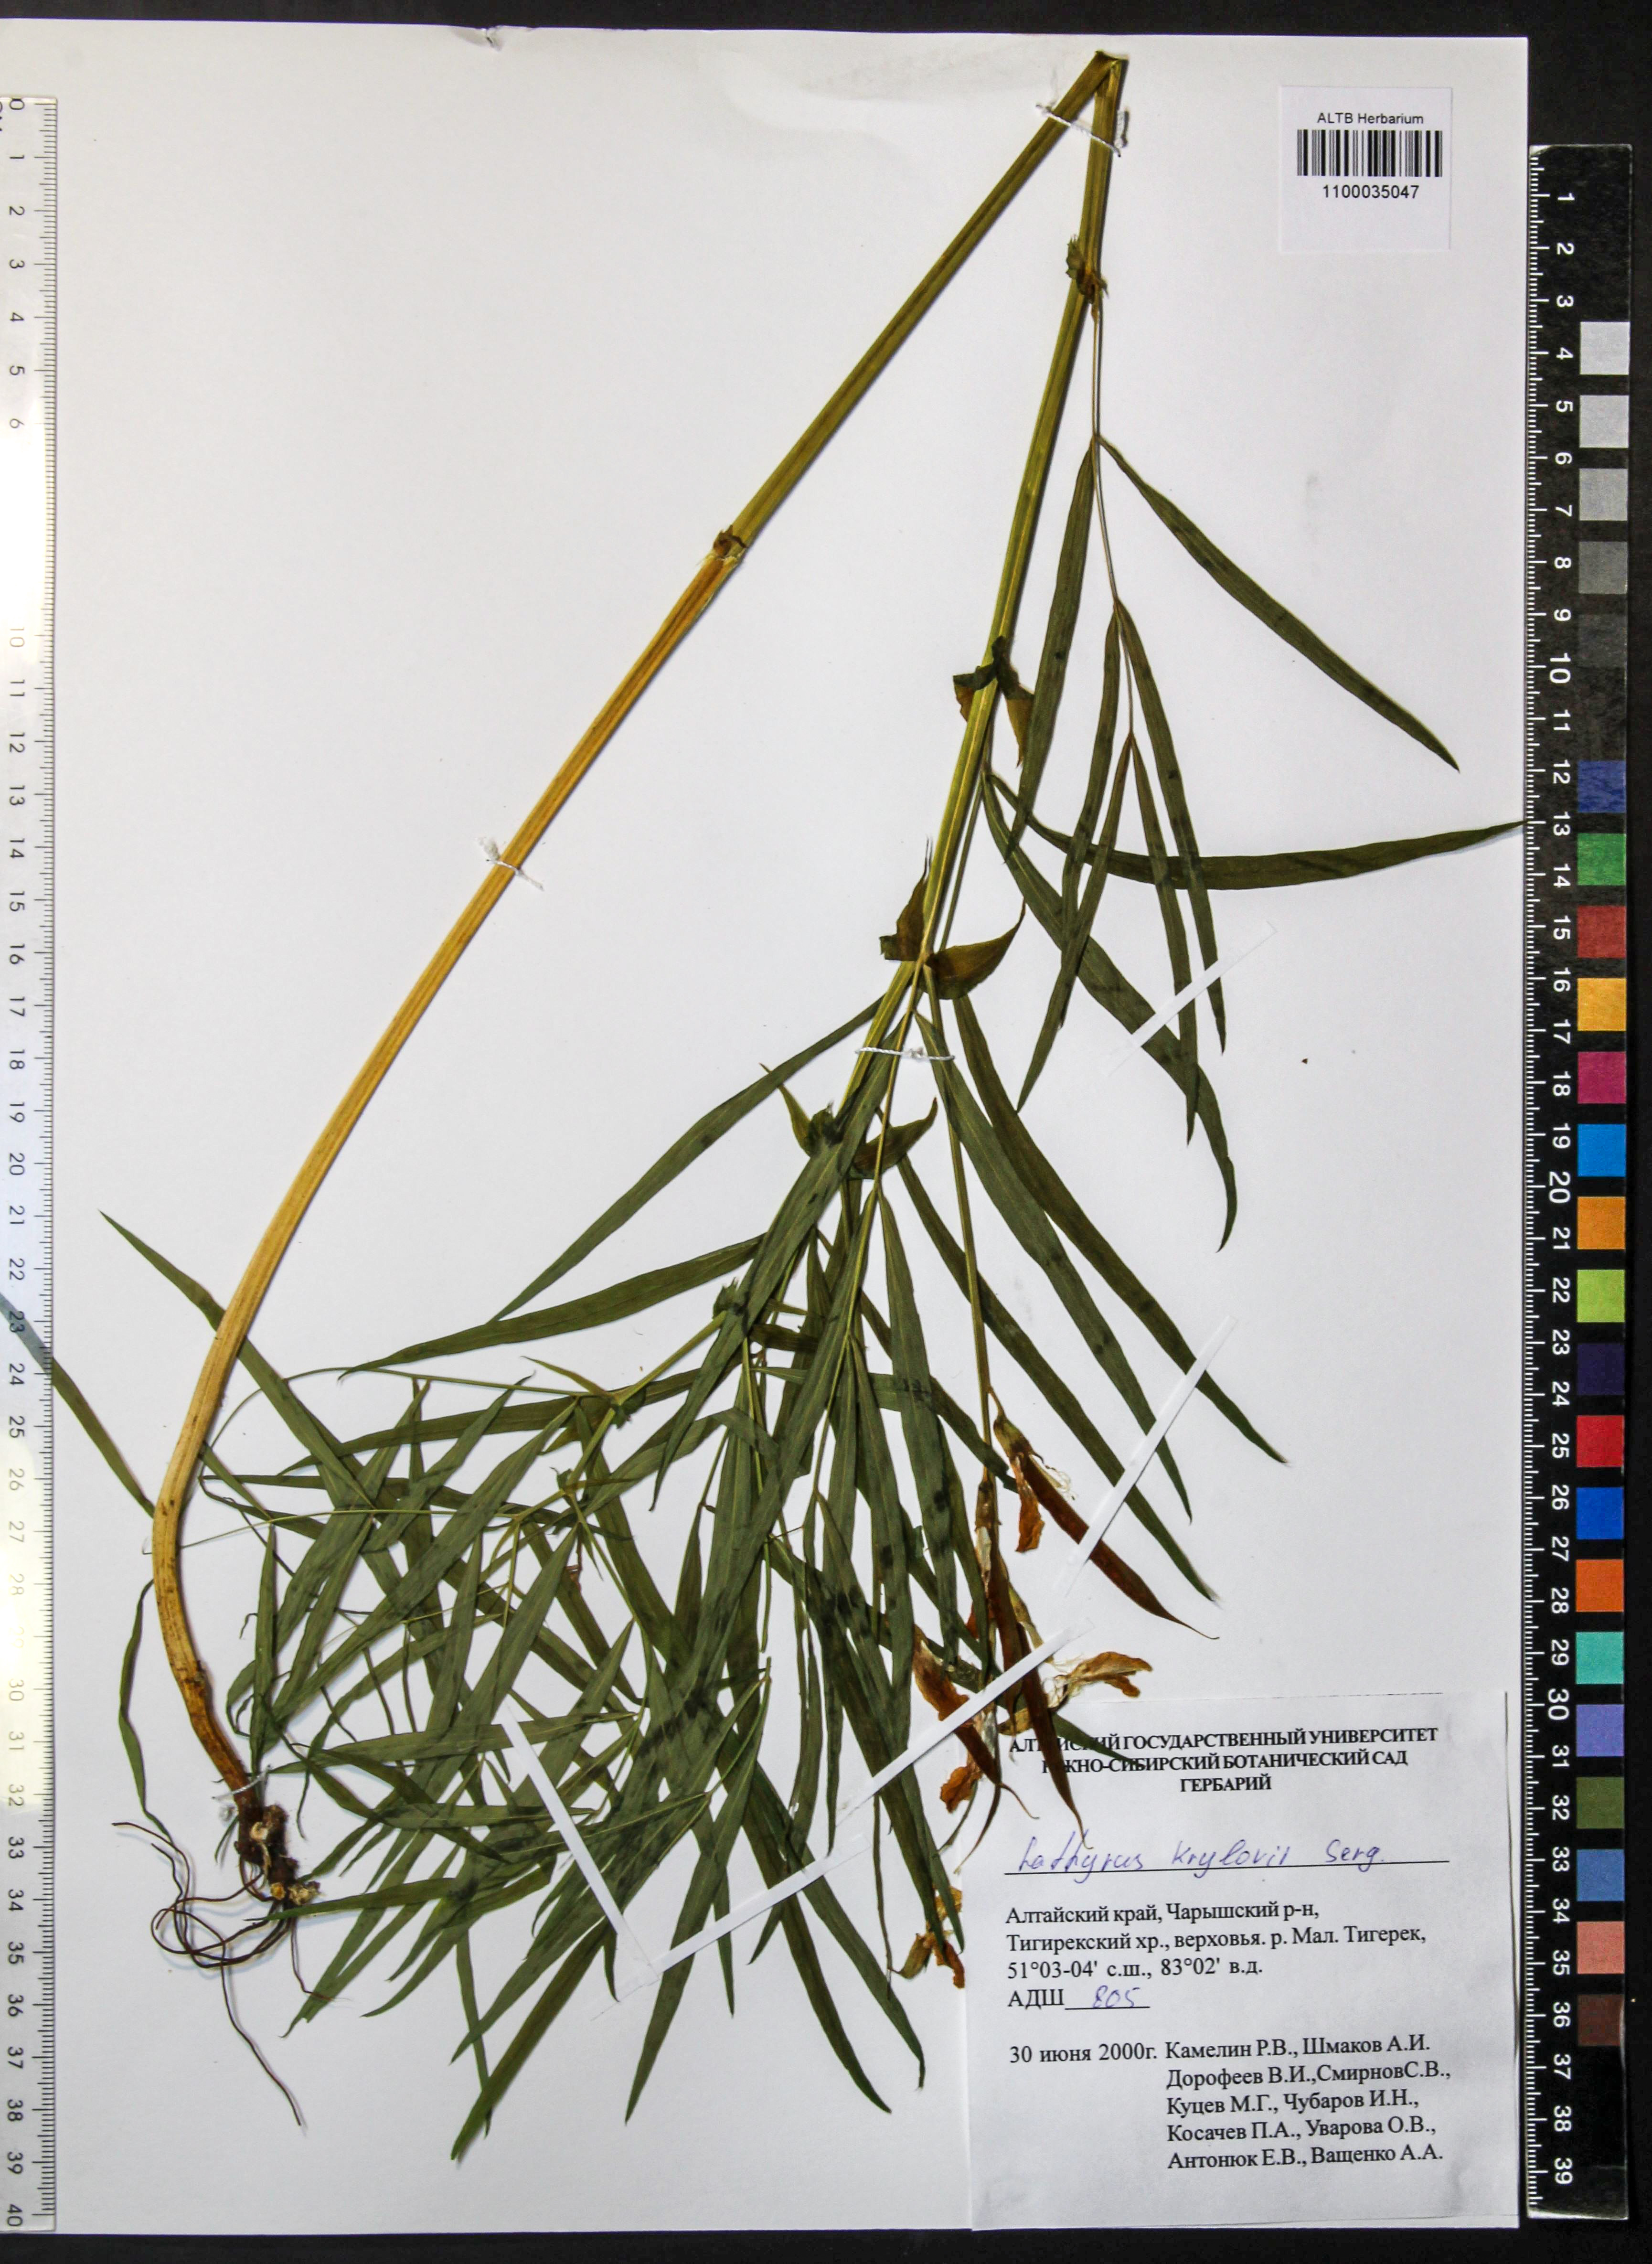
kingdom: Plantae
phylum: Tracheophyta
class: Magnoliopsida
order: Fabales
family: Fabaceae
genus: Lathyrus
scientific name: Lathyrus krylovii
